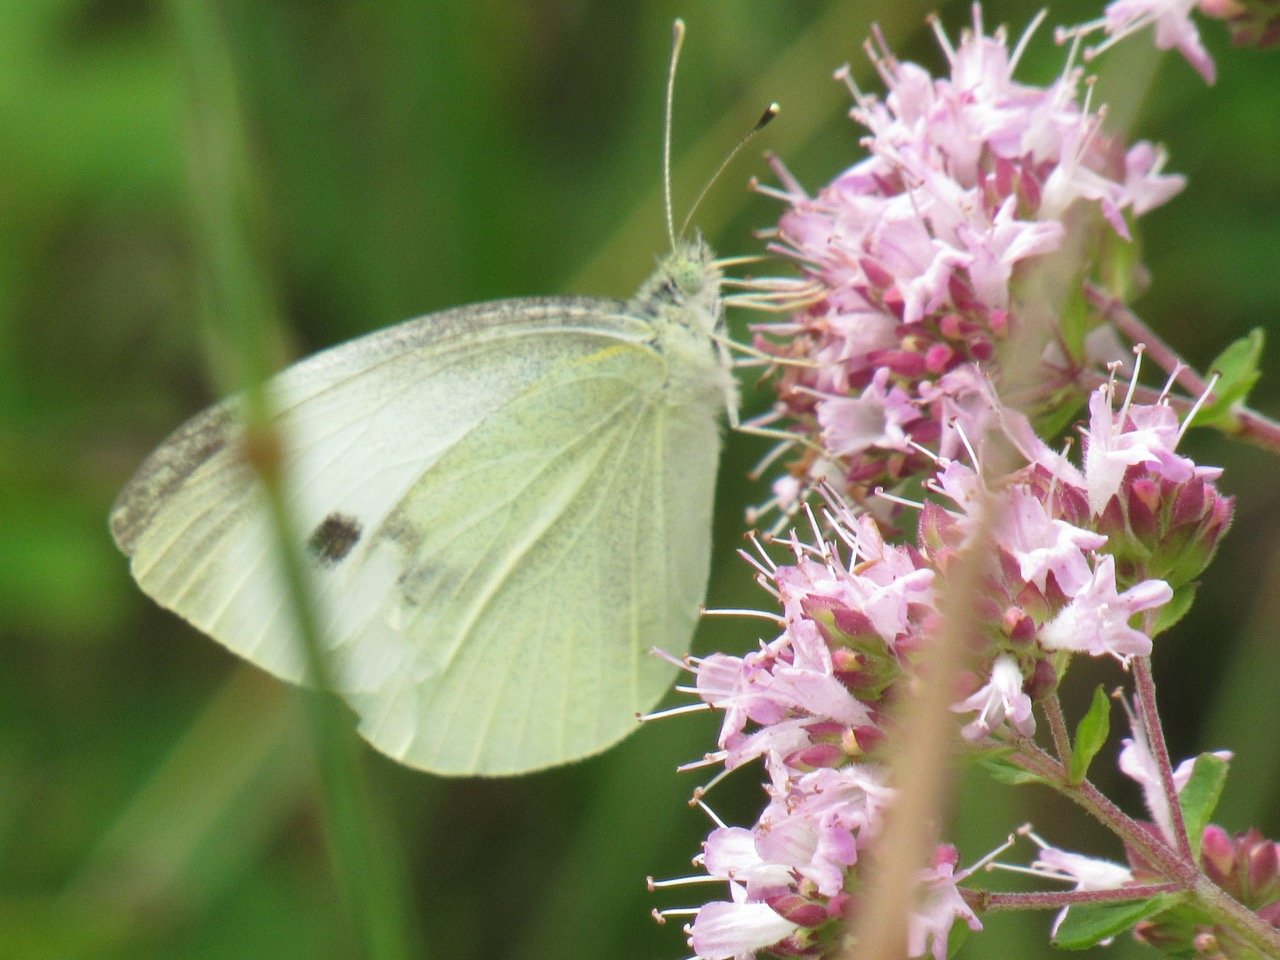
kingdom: Animalia
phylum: Arthropoda
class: Insecta
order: Lepidoptera
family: Pieridae
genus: Pieris
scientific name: Pieris rapae
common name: Cabbage White
